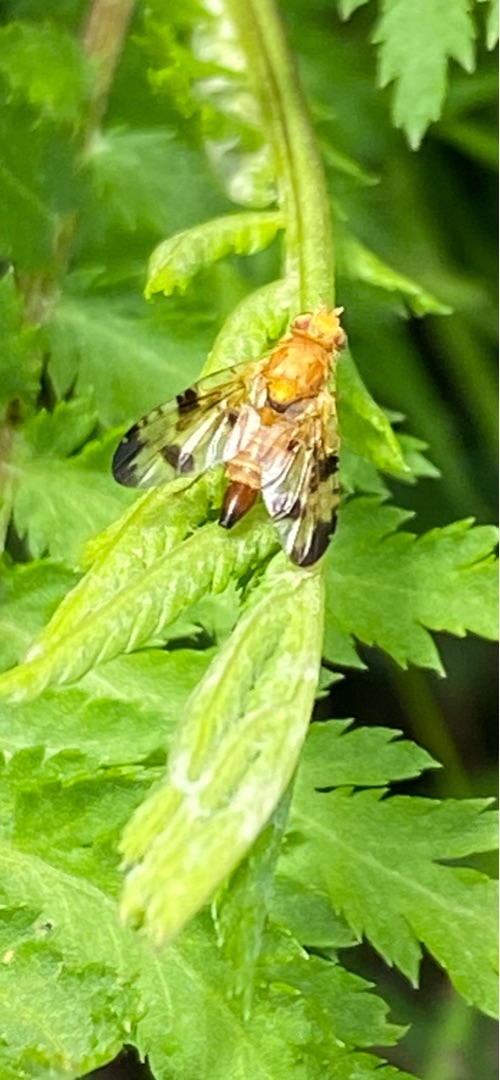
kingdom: Animalia
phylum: Arthropoda
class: Insecta
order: Diptera
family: Tephritidae
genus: Xyphosia
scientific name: Xyphosia miliaria
